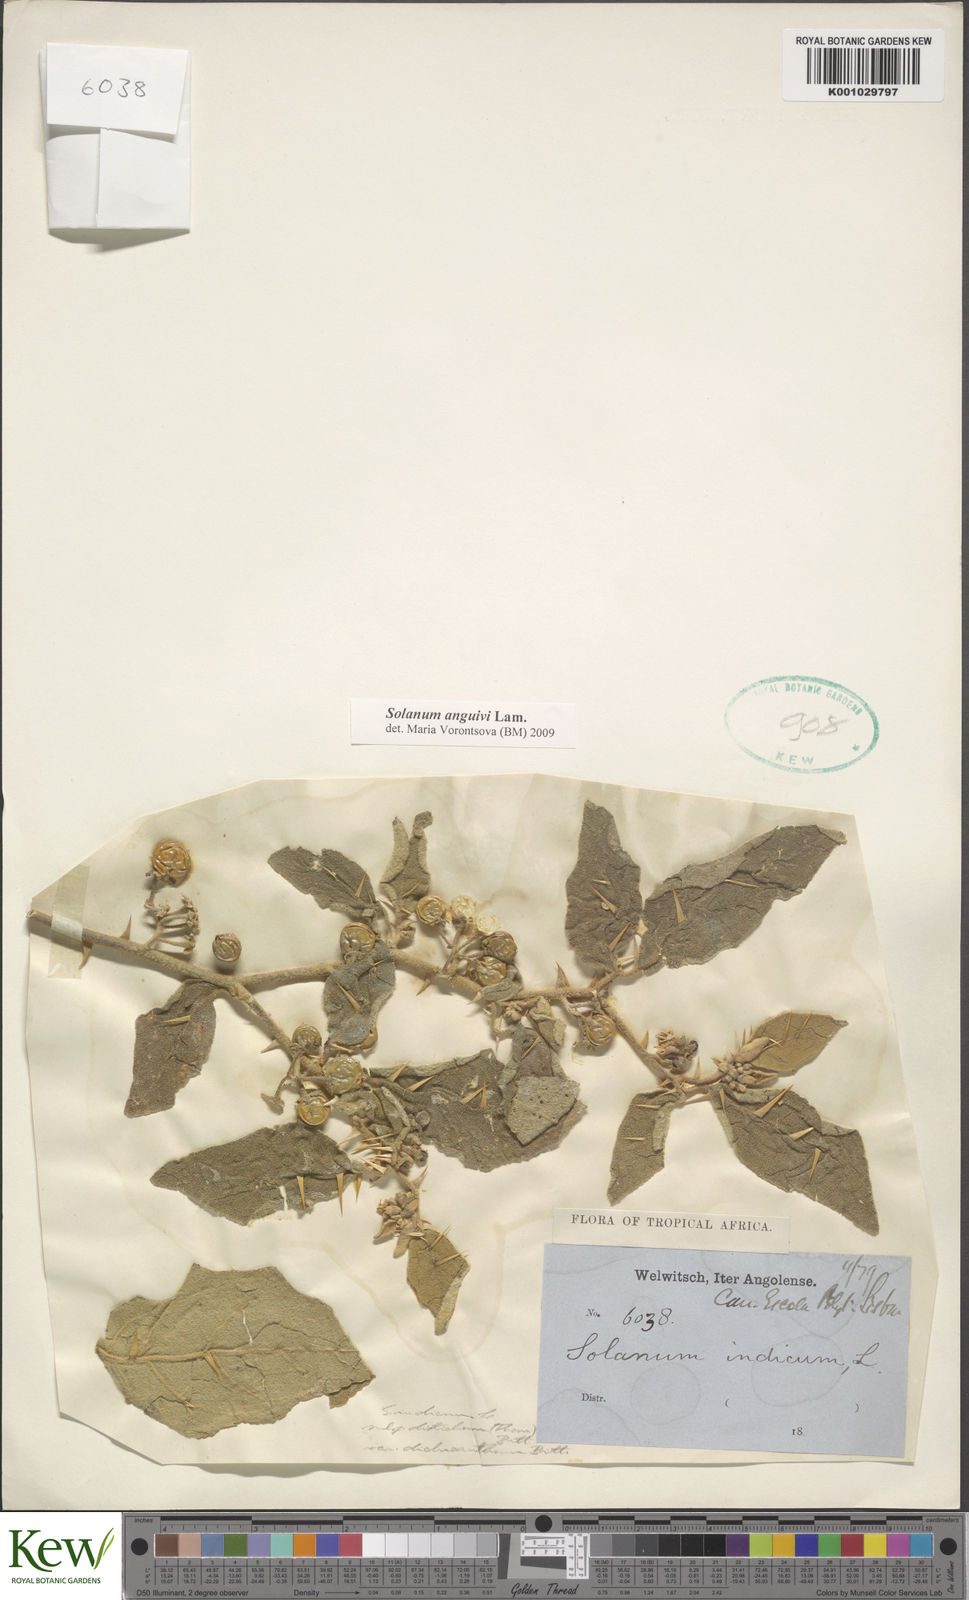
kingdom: Plantae
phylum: Tracheophyta
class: Magnoliopsida
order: Solanales
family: Solanaceae
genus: Solanum
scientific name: Solanum anguivi
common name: Forest bitterberry
